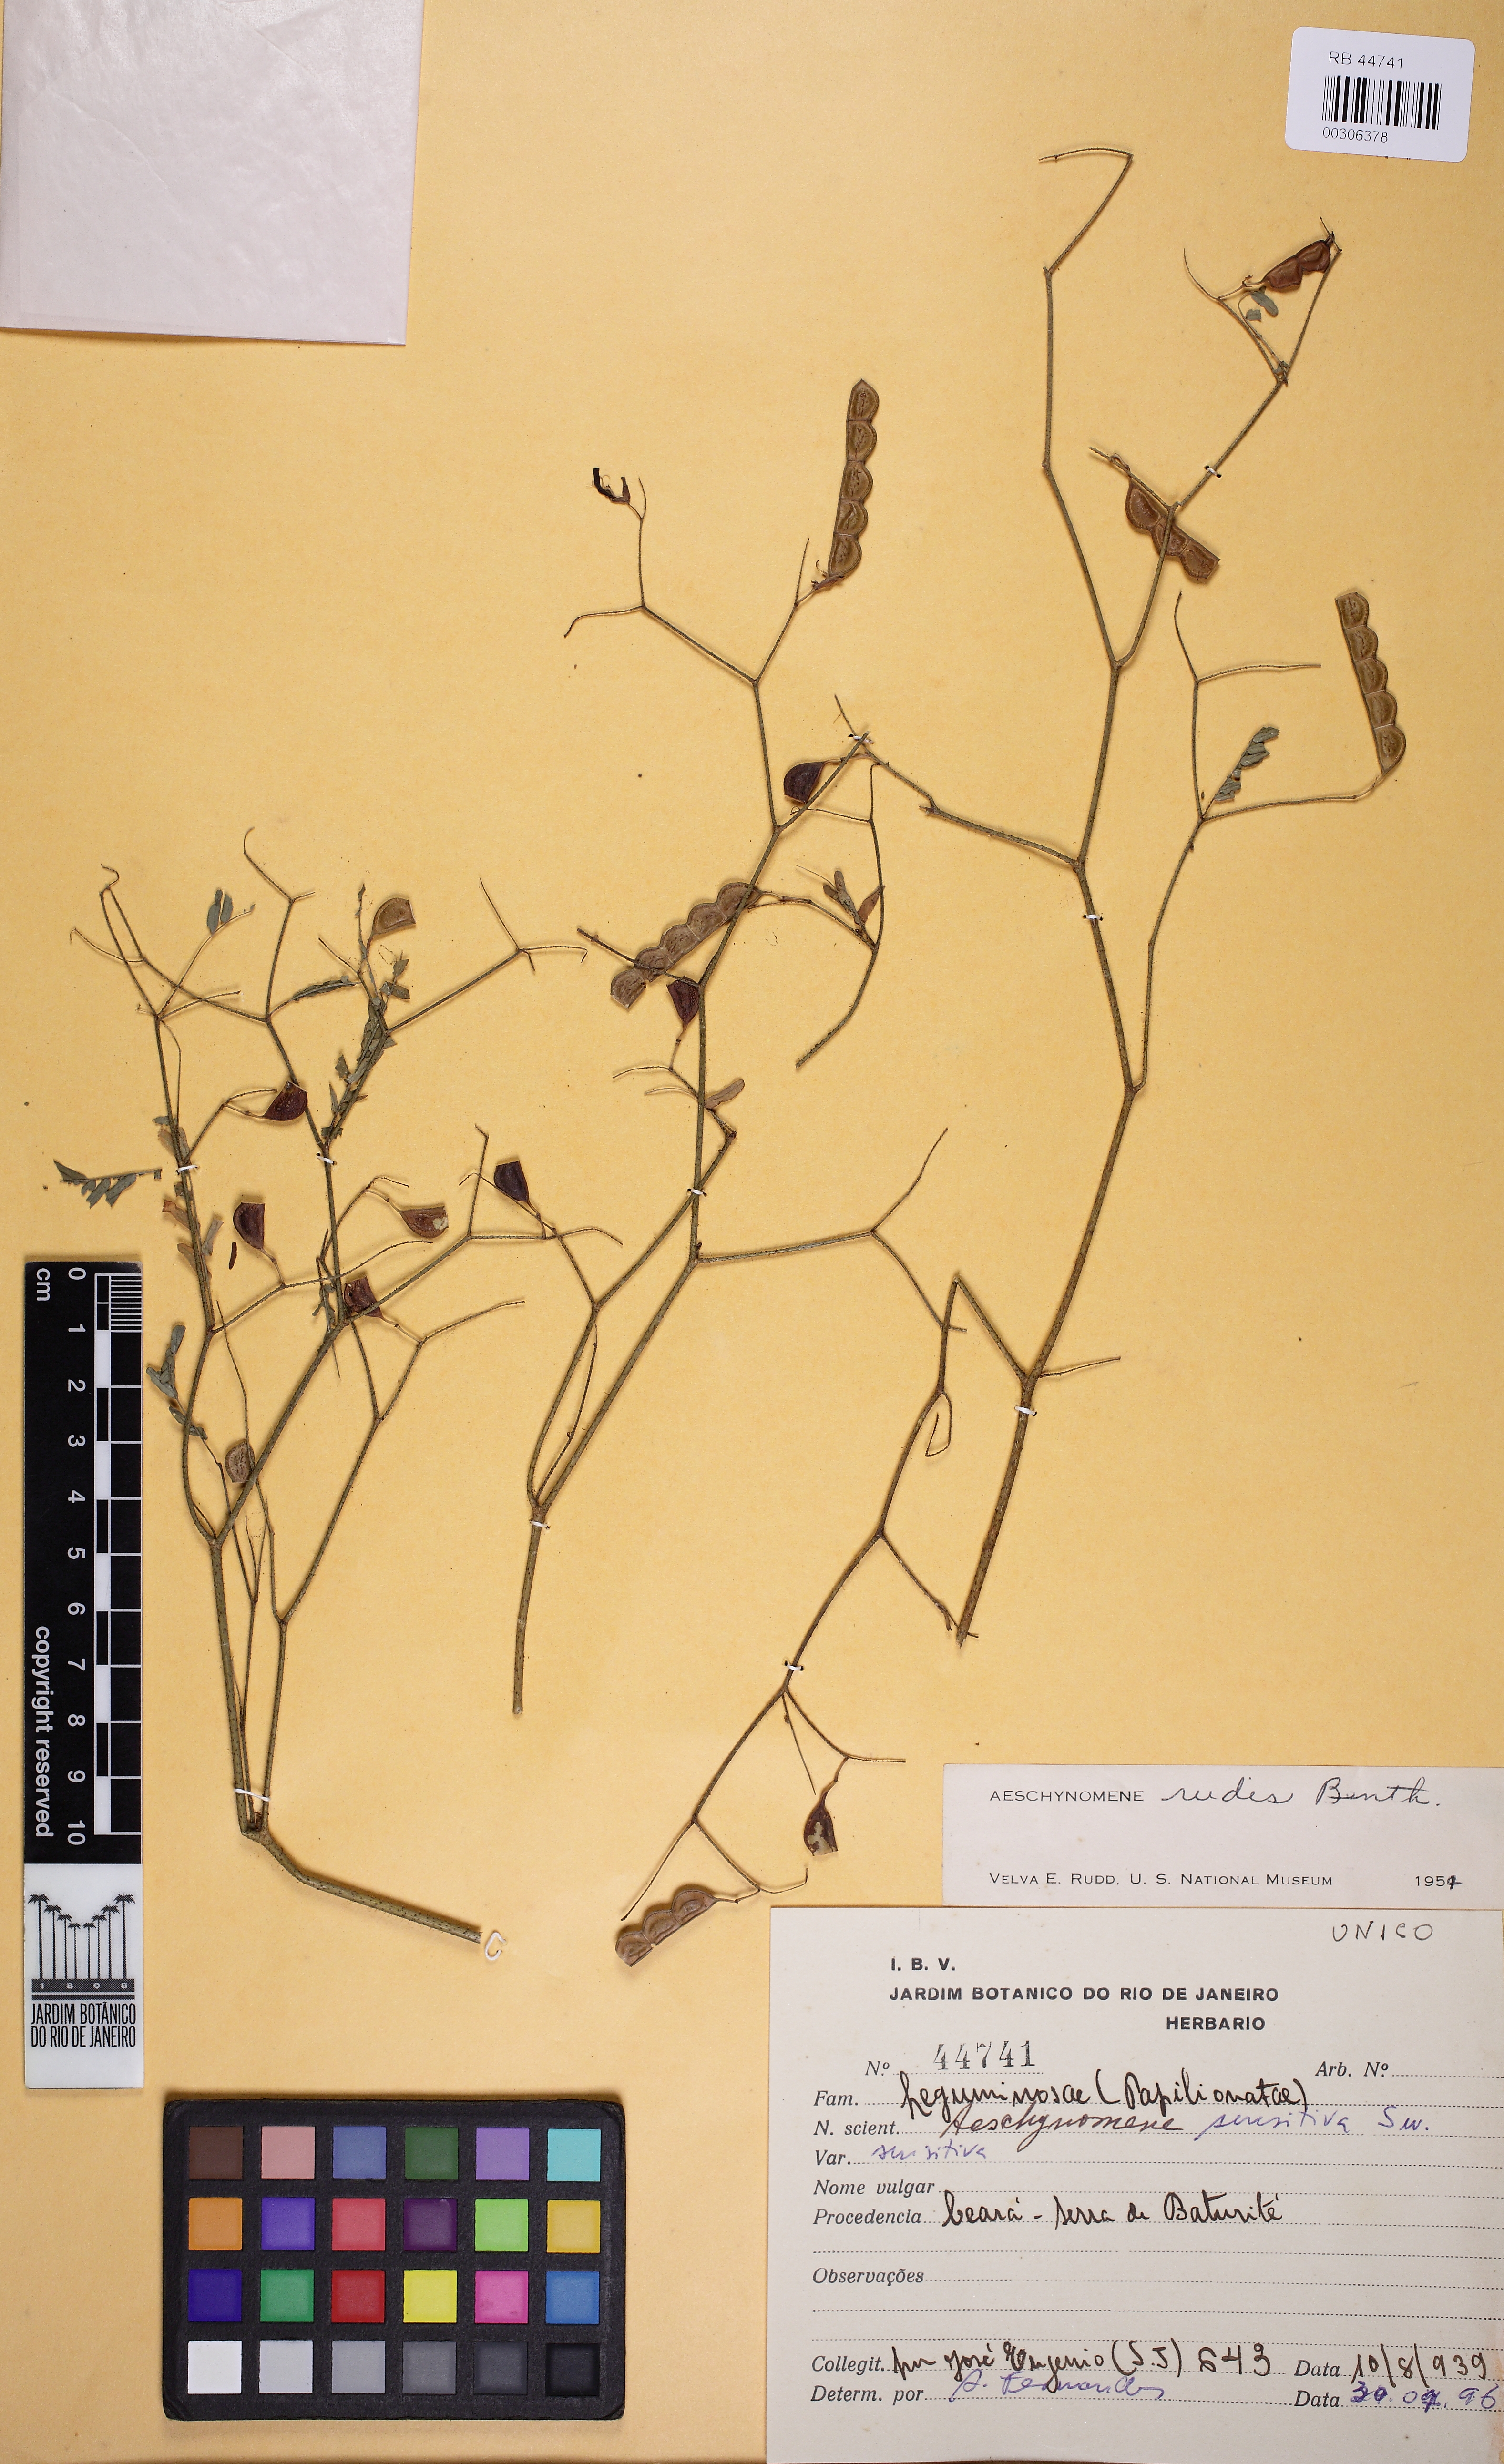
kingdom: Plantae
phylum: Tracheophyta
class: Magnoliopsida
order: Fabales
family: Fabaceae
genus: Aeschynomene
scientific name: Aeschynomene sensitiva
